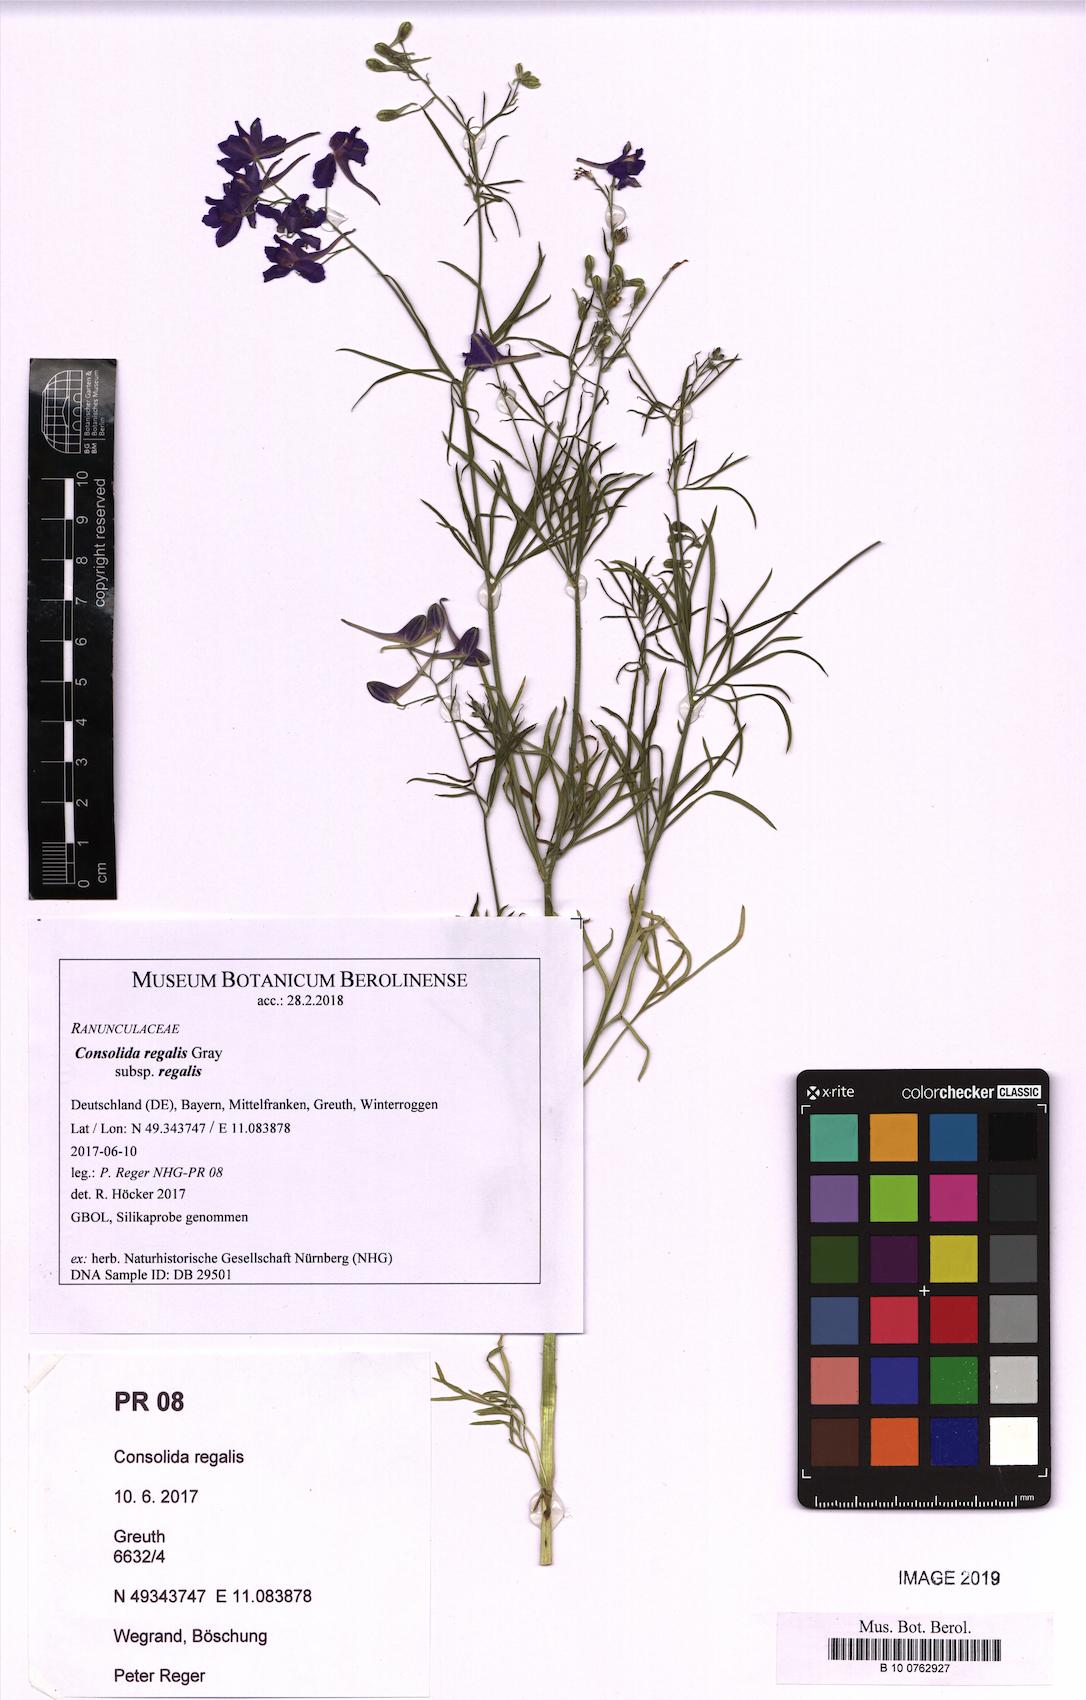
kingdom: Plantae
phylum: Tracheophyta
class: Magnoliopsida
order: Ranunculales
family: Ranunculaceae
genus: Delphinium
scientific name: Delphinium consolida
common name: Branching larkspur
